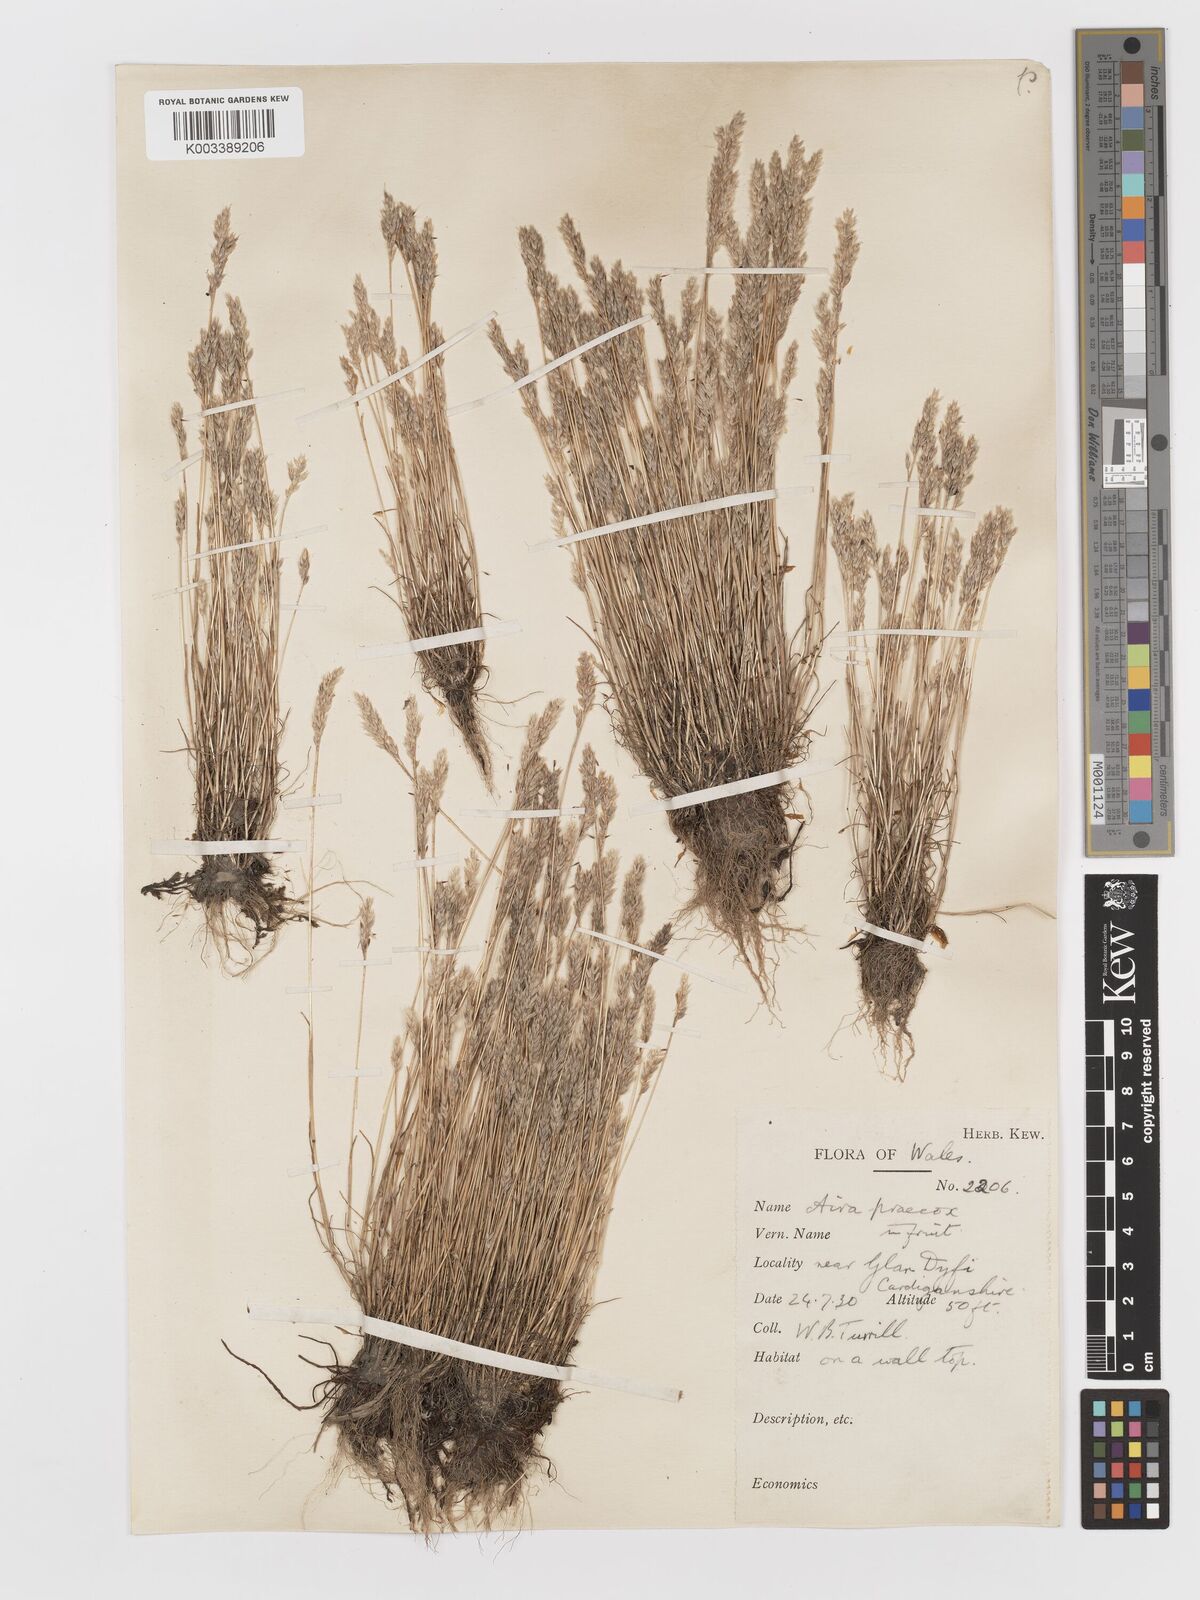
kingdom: Plantae
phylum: Tracheophyta
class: Liliopsida
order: Poales
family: Poaceae
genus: Aira
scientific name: Aira praecox
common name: Early hair-grass
